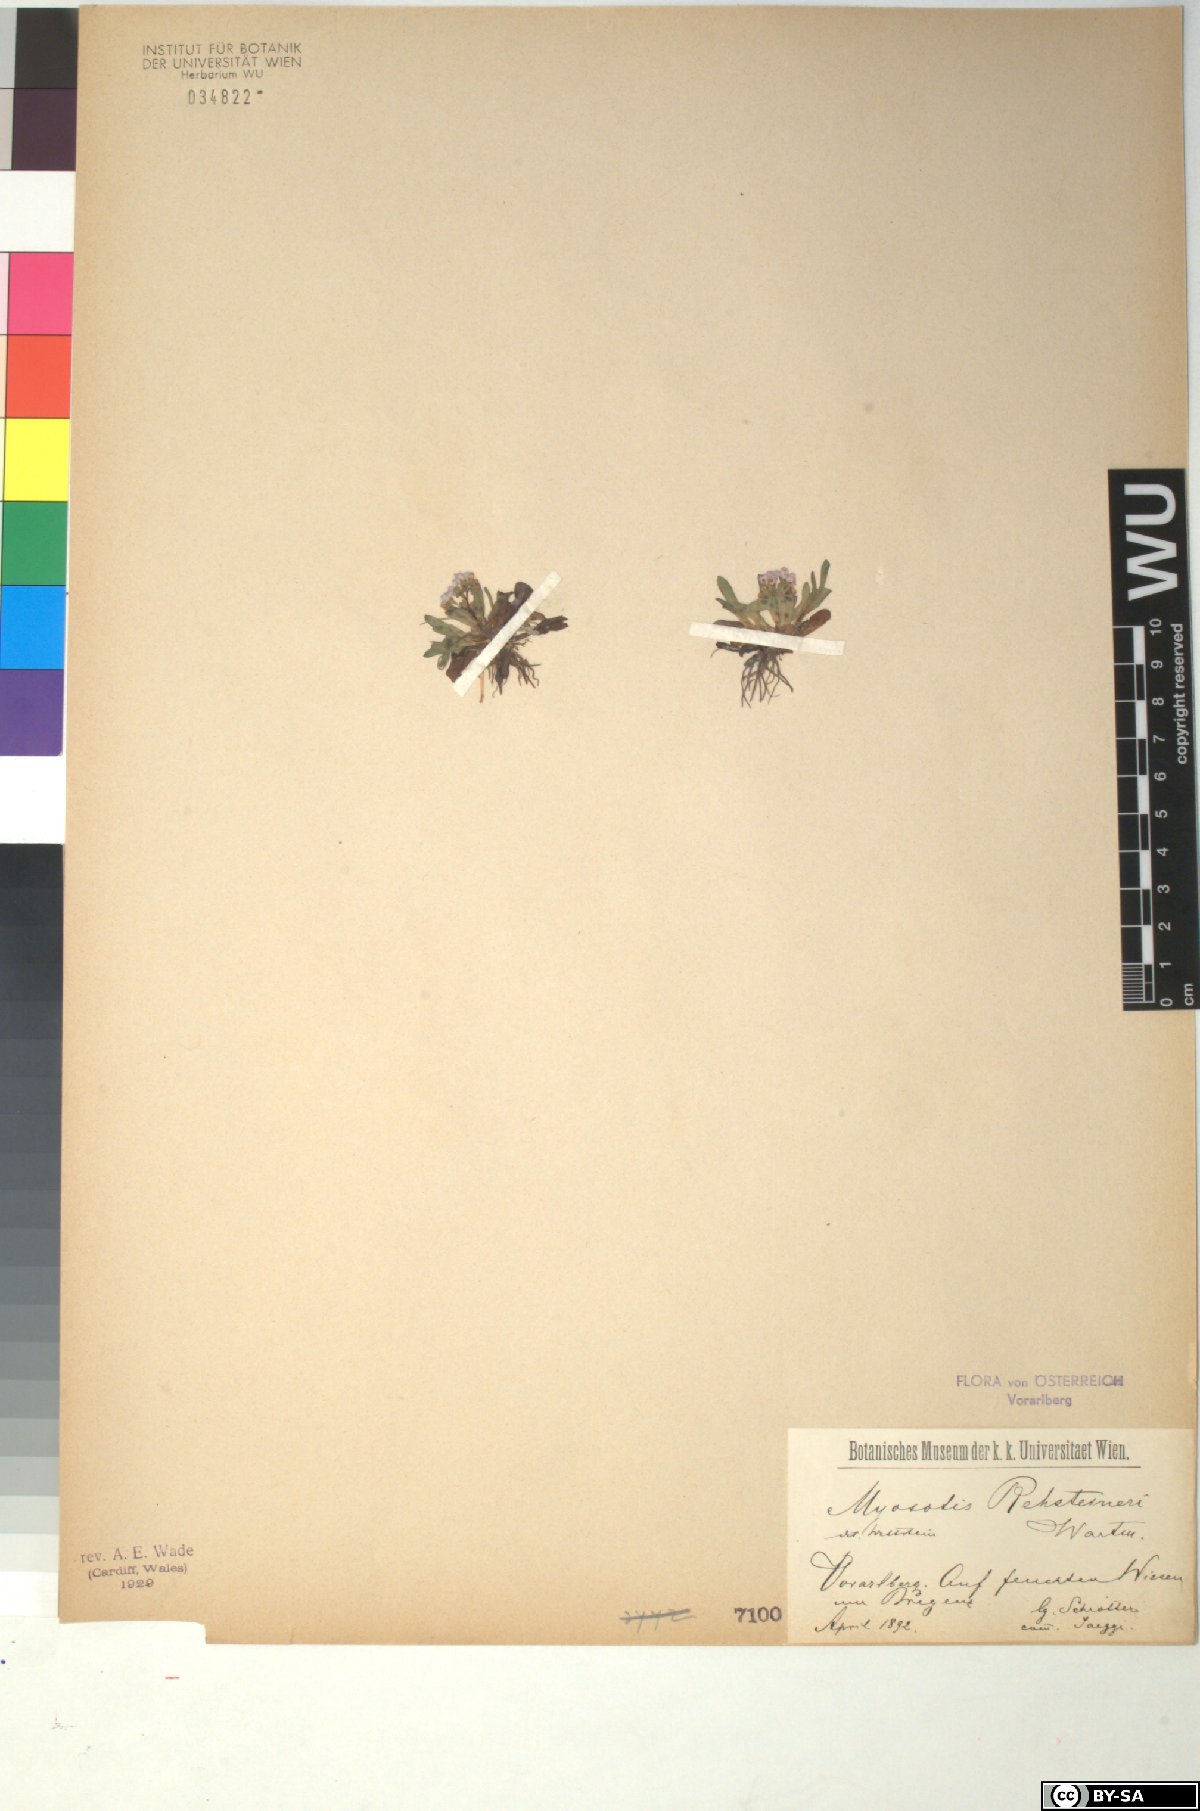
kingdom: Plantae
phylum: Tracheophyta
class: Magnoliopsida
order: Boraginales
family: Boraginaceae
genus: Myosotis
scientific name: Myosotis rehsteineri
